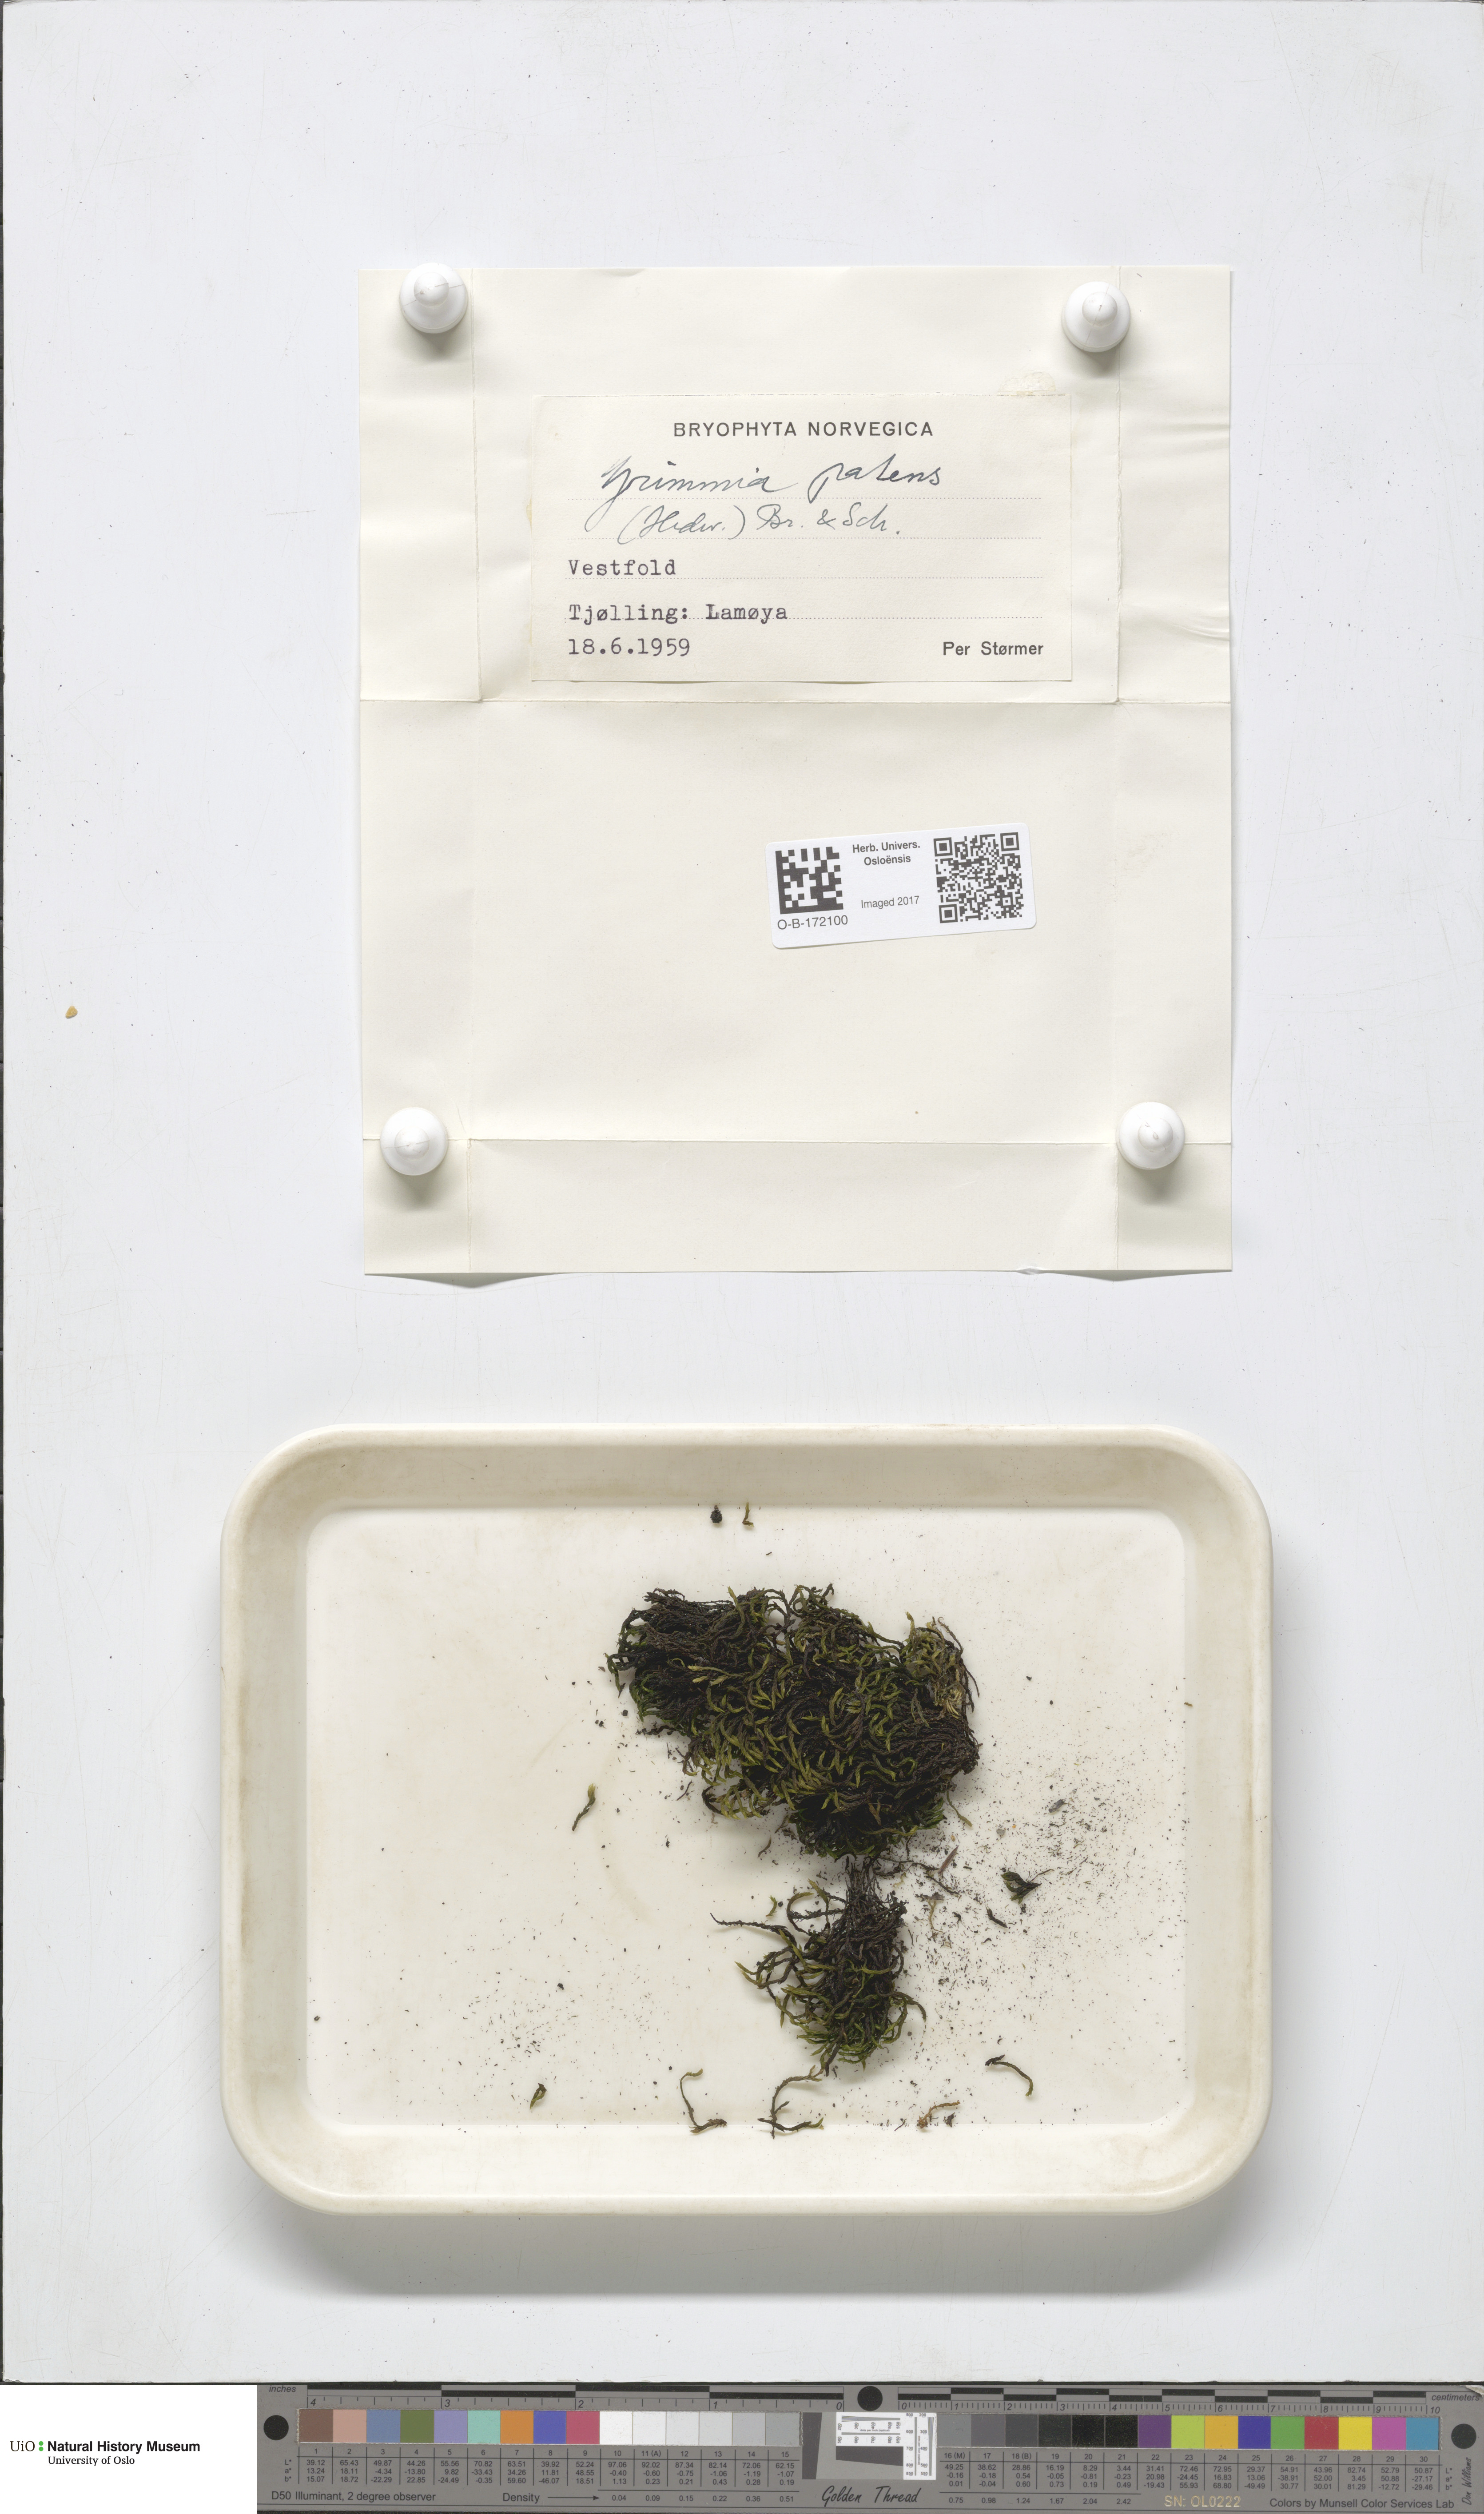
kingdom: Plantae
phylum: Bryophyta
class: Bryopsida
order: Grimmiales
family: Grimmiaceae
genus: Grimmia
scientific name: Grimmia ramondii
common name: Spreading-leaved grimmia
